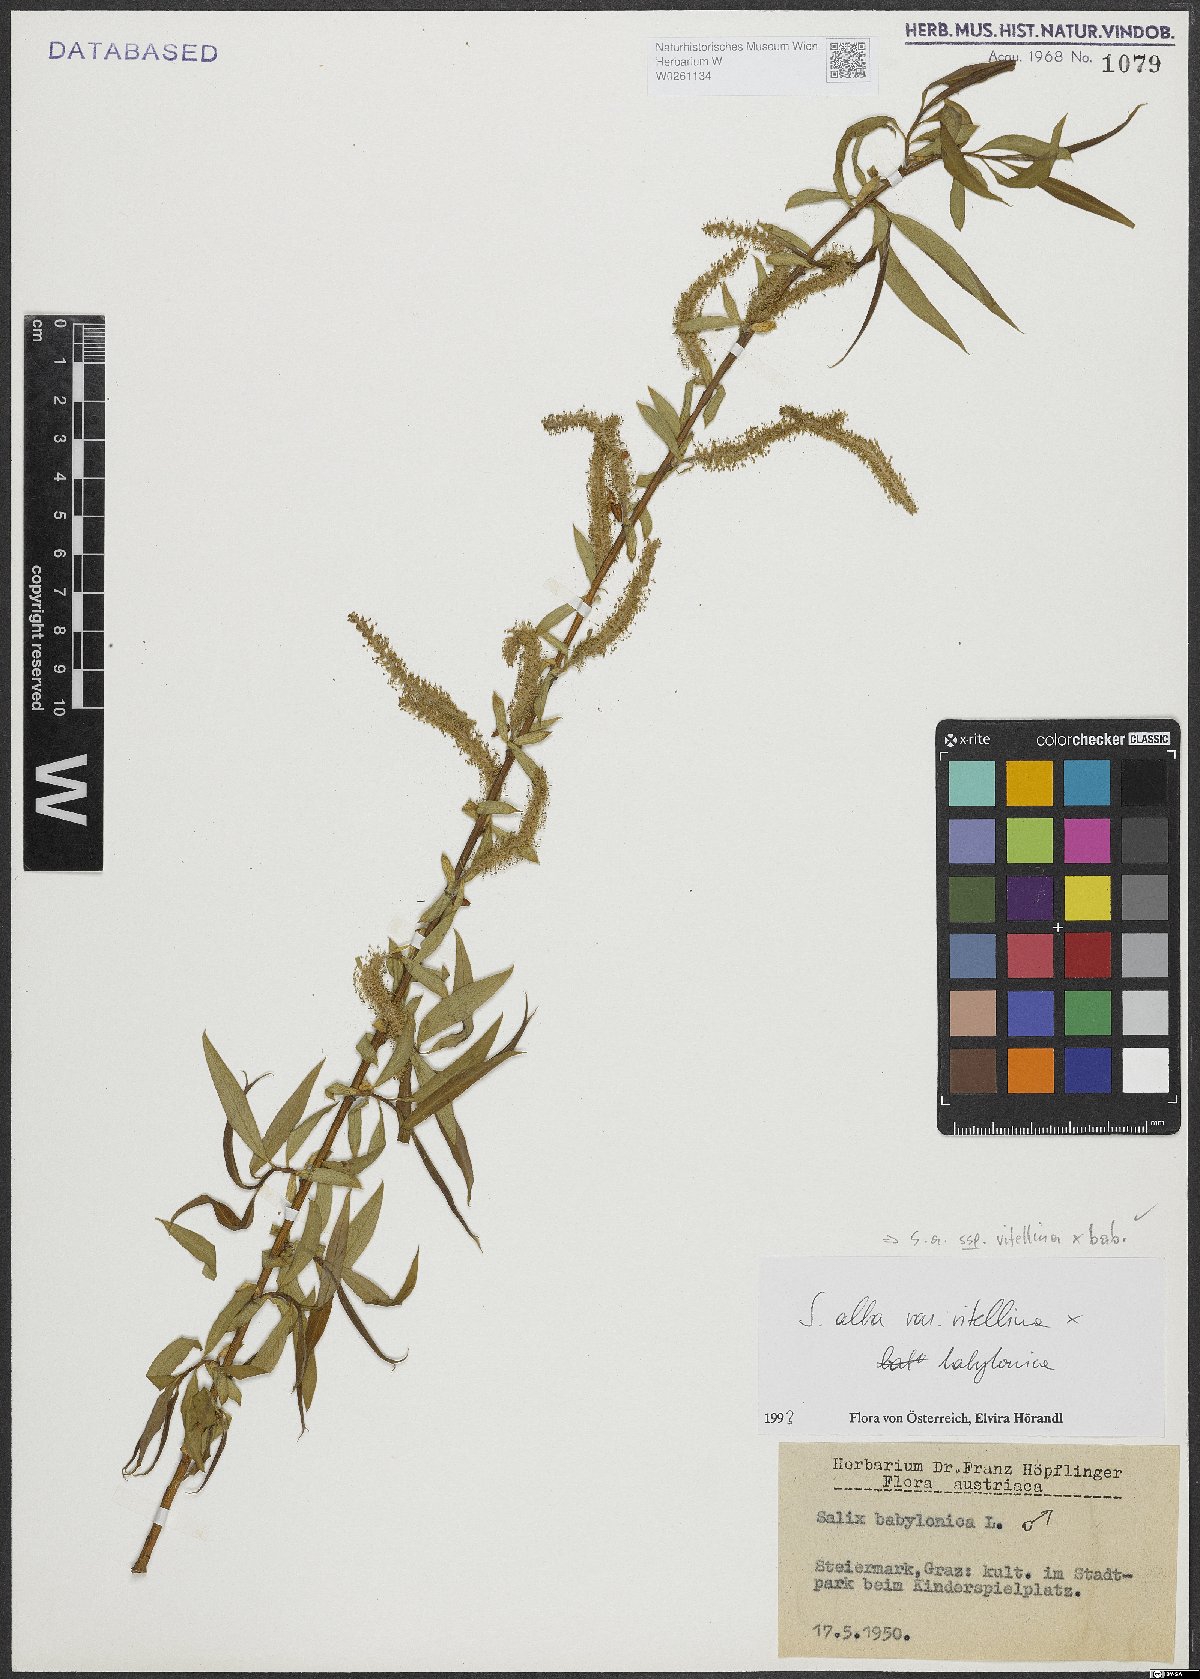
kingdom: Plantae
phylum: Tracheophyta
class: Magnoliopsida
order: Malpighiales
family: Salicaceae
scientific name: Salicaceae
